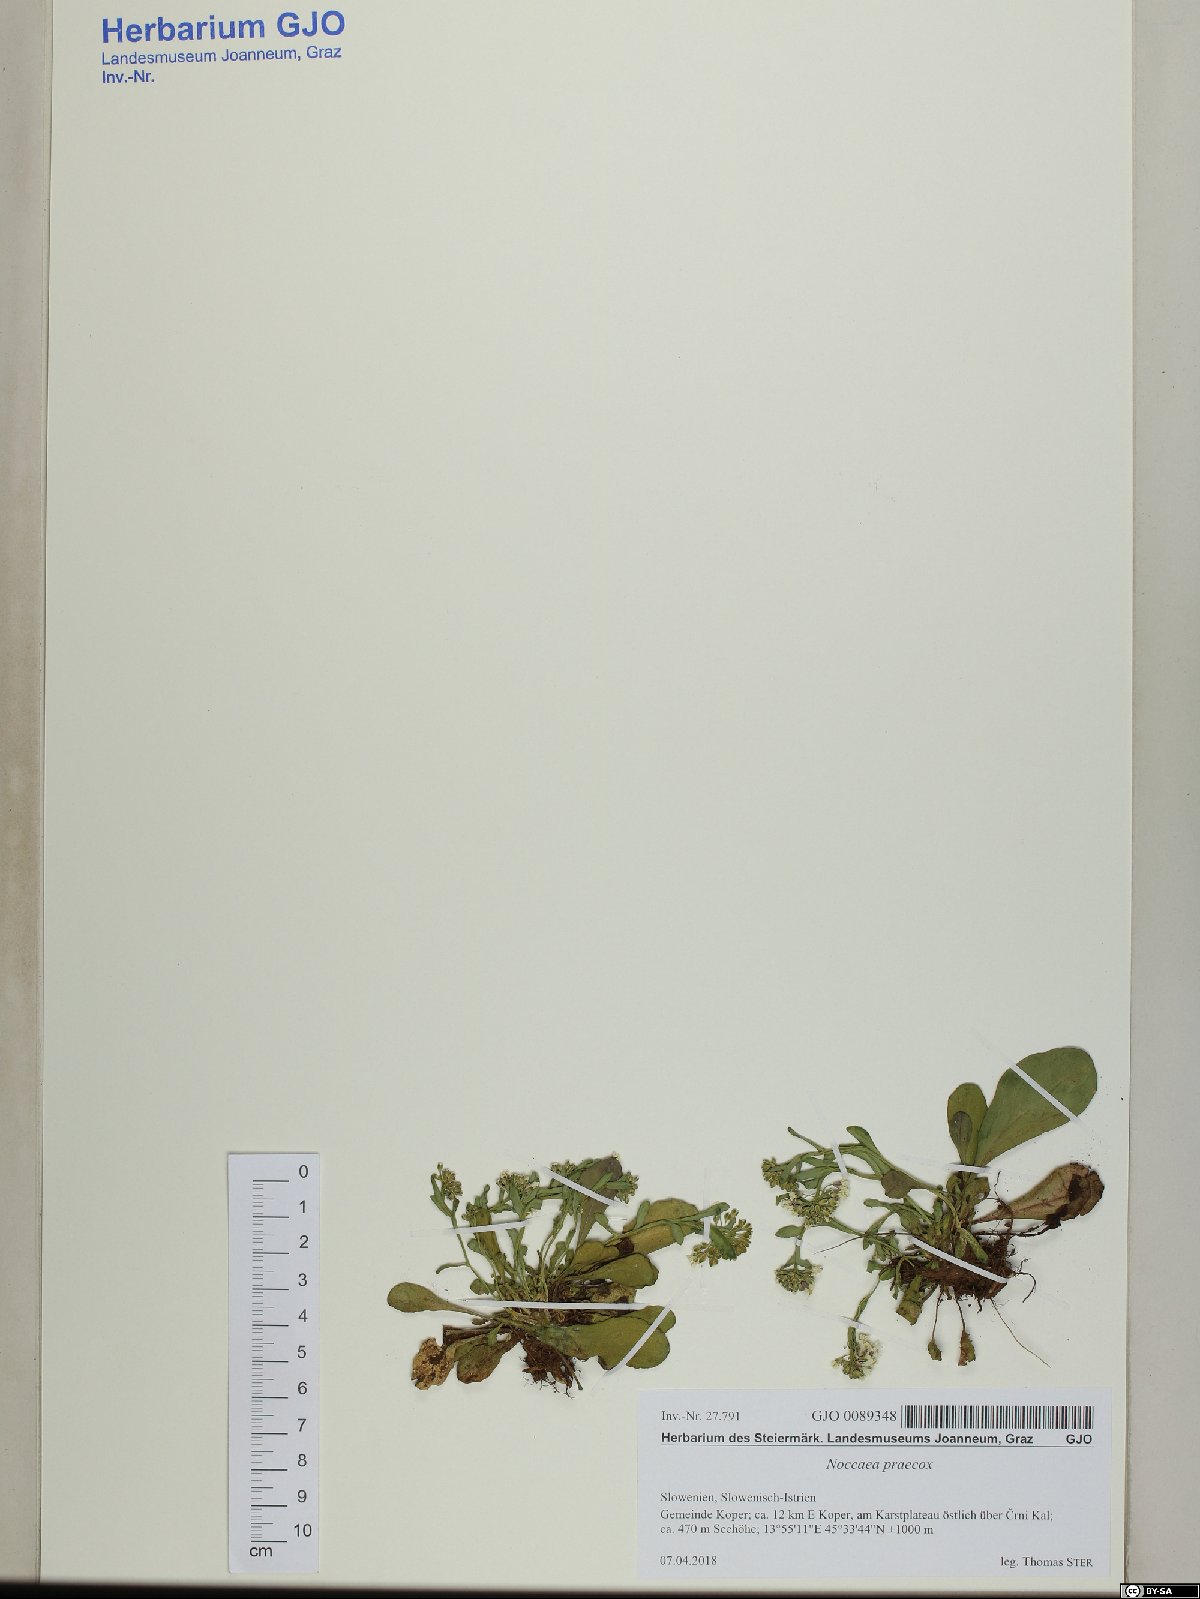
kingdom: Plantae
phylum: Tracheophyta
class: Magnoliopsida
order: Brassicales
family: Brassicaceae
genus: Noccaea
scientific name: Noccaea praecox
